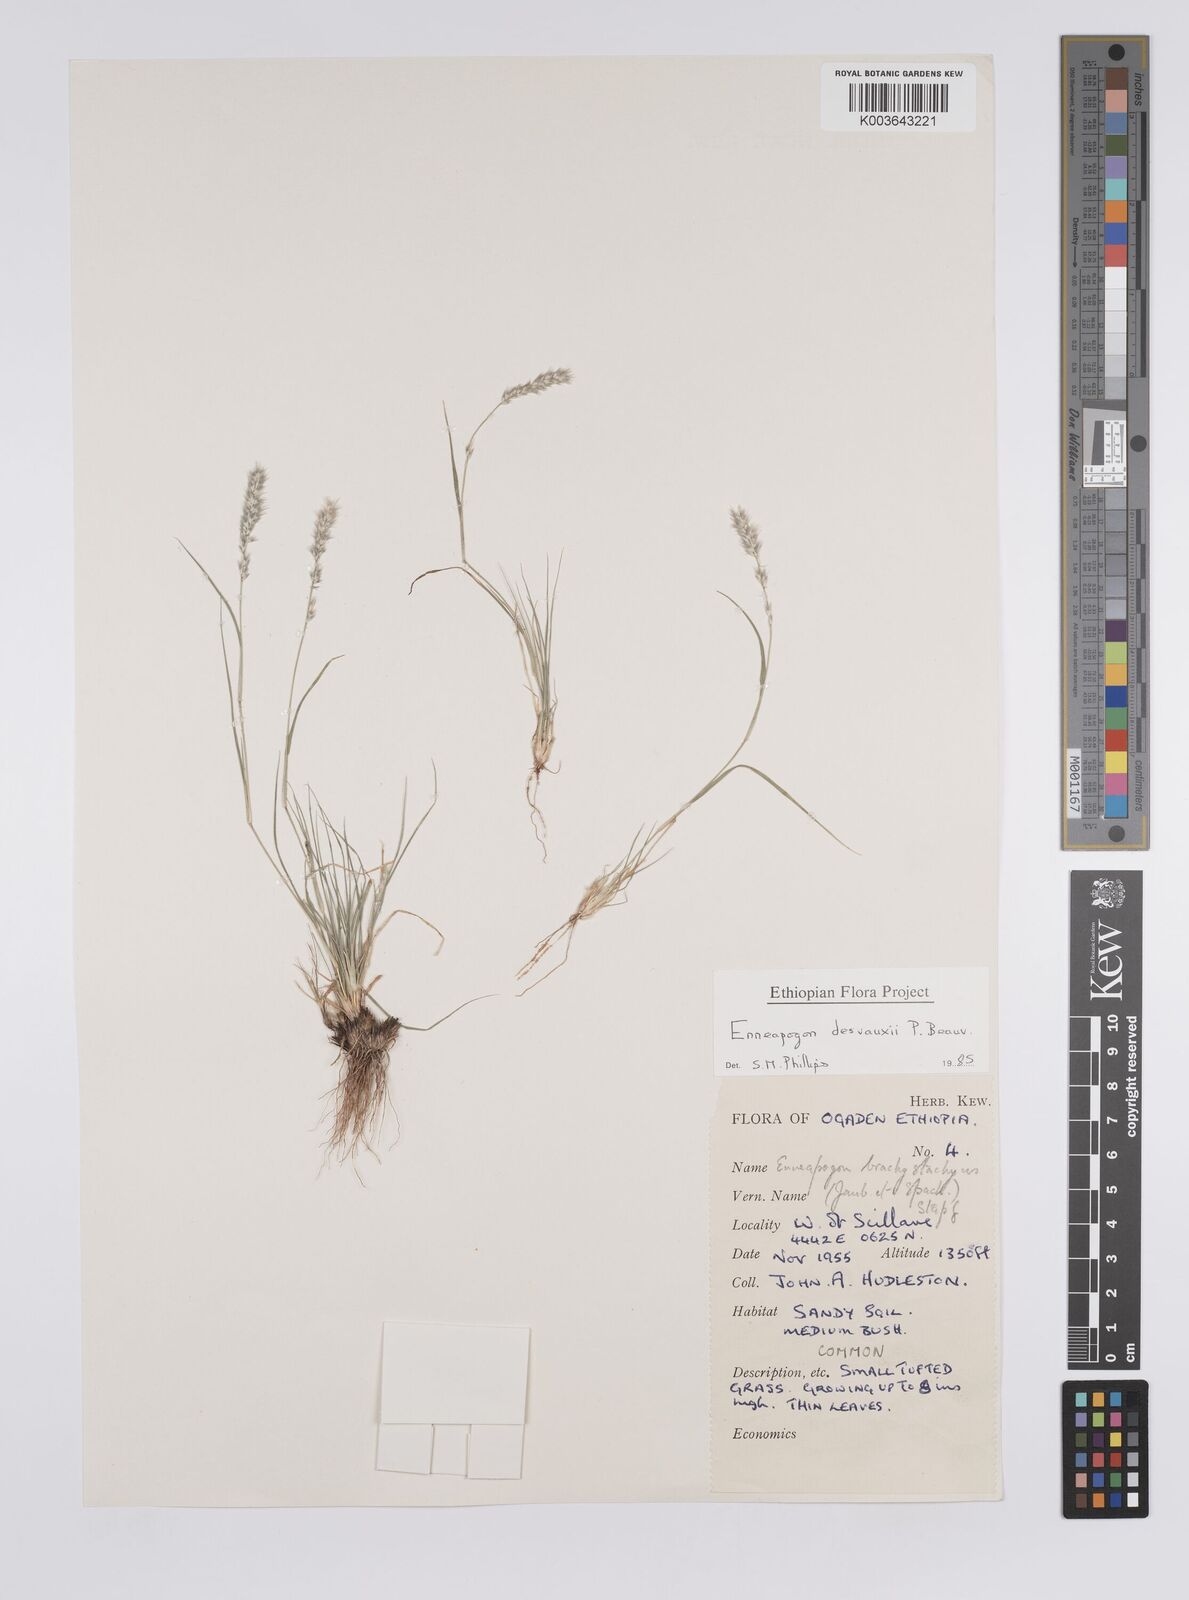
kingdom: Plantae
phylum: Tracheophyta
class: Liliopsida
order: Poales
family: Poaceae
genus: Enneapogon
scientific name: Enneapogon desvauxii
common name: Feather pappus grass
